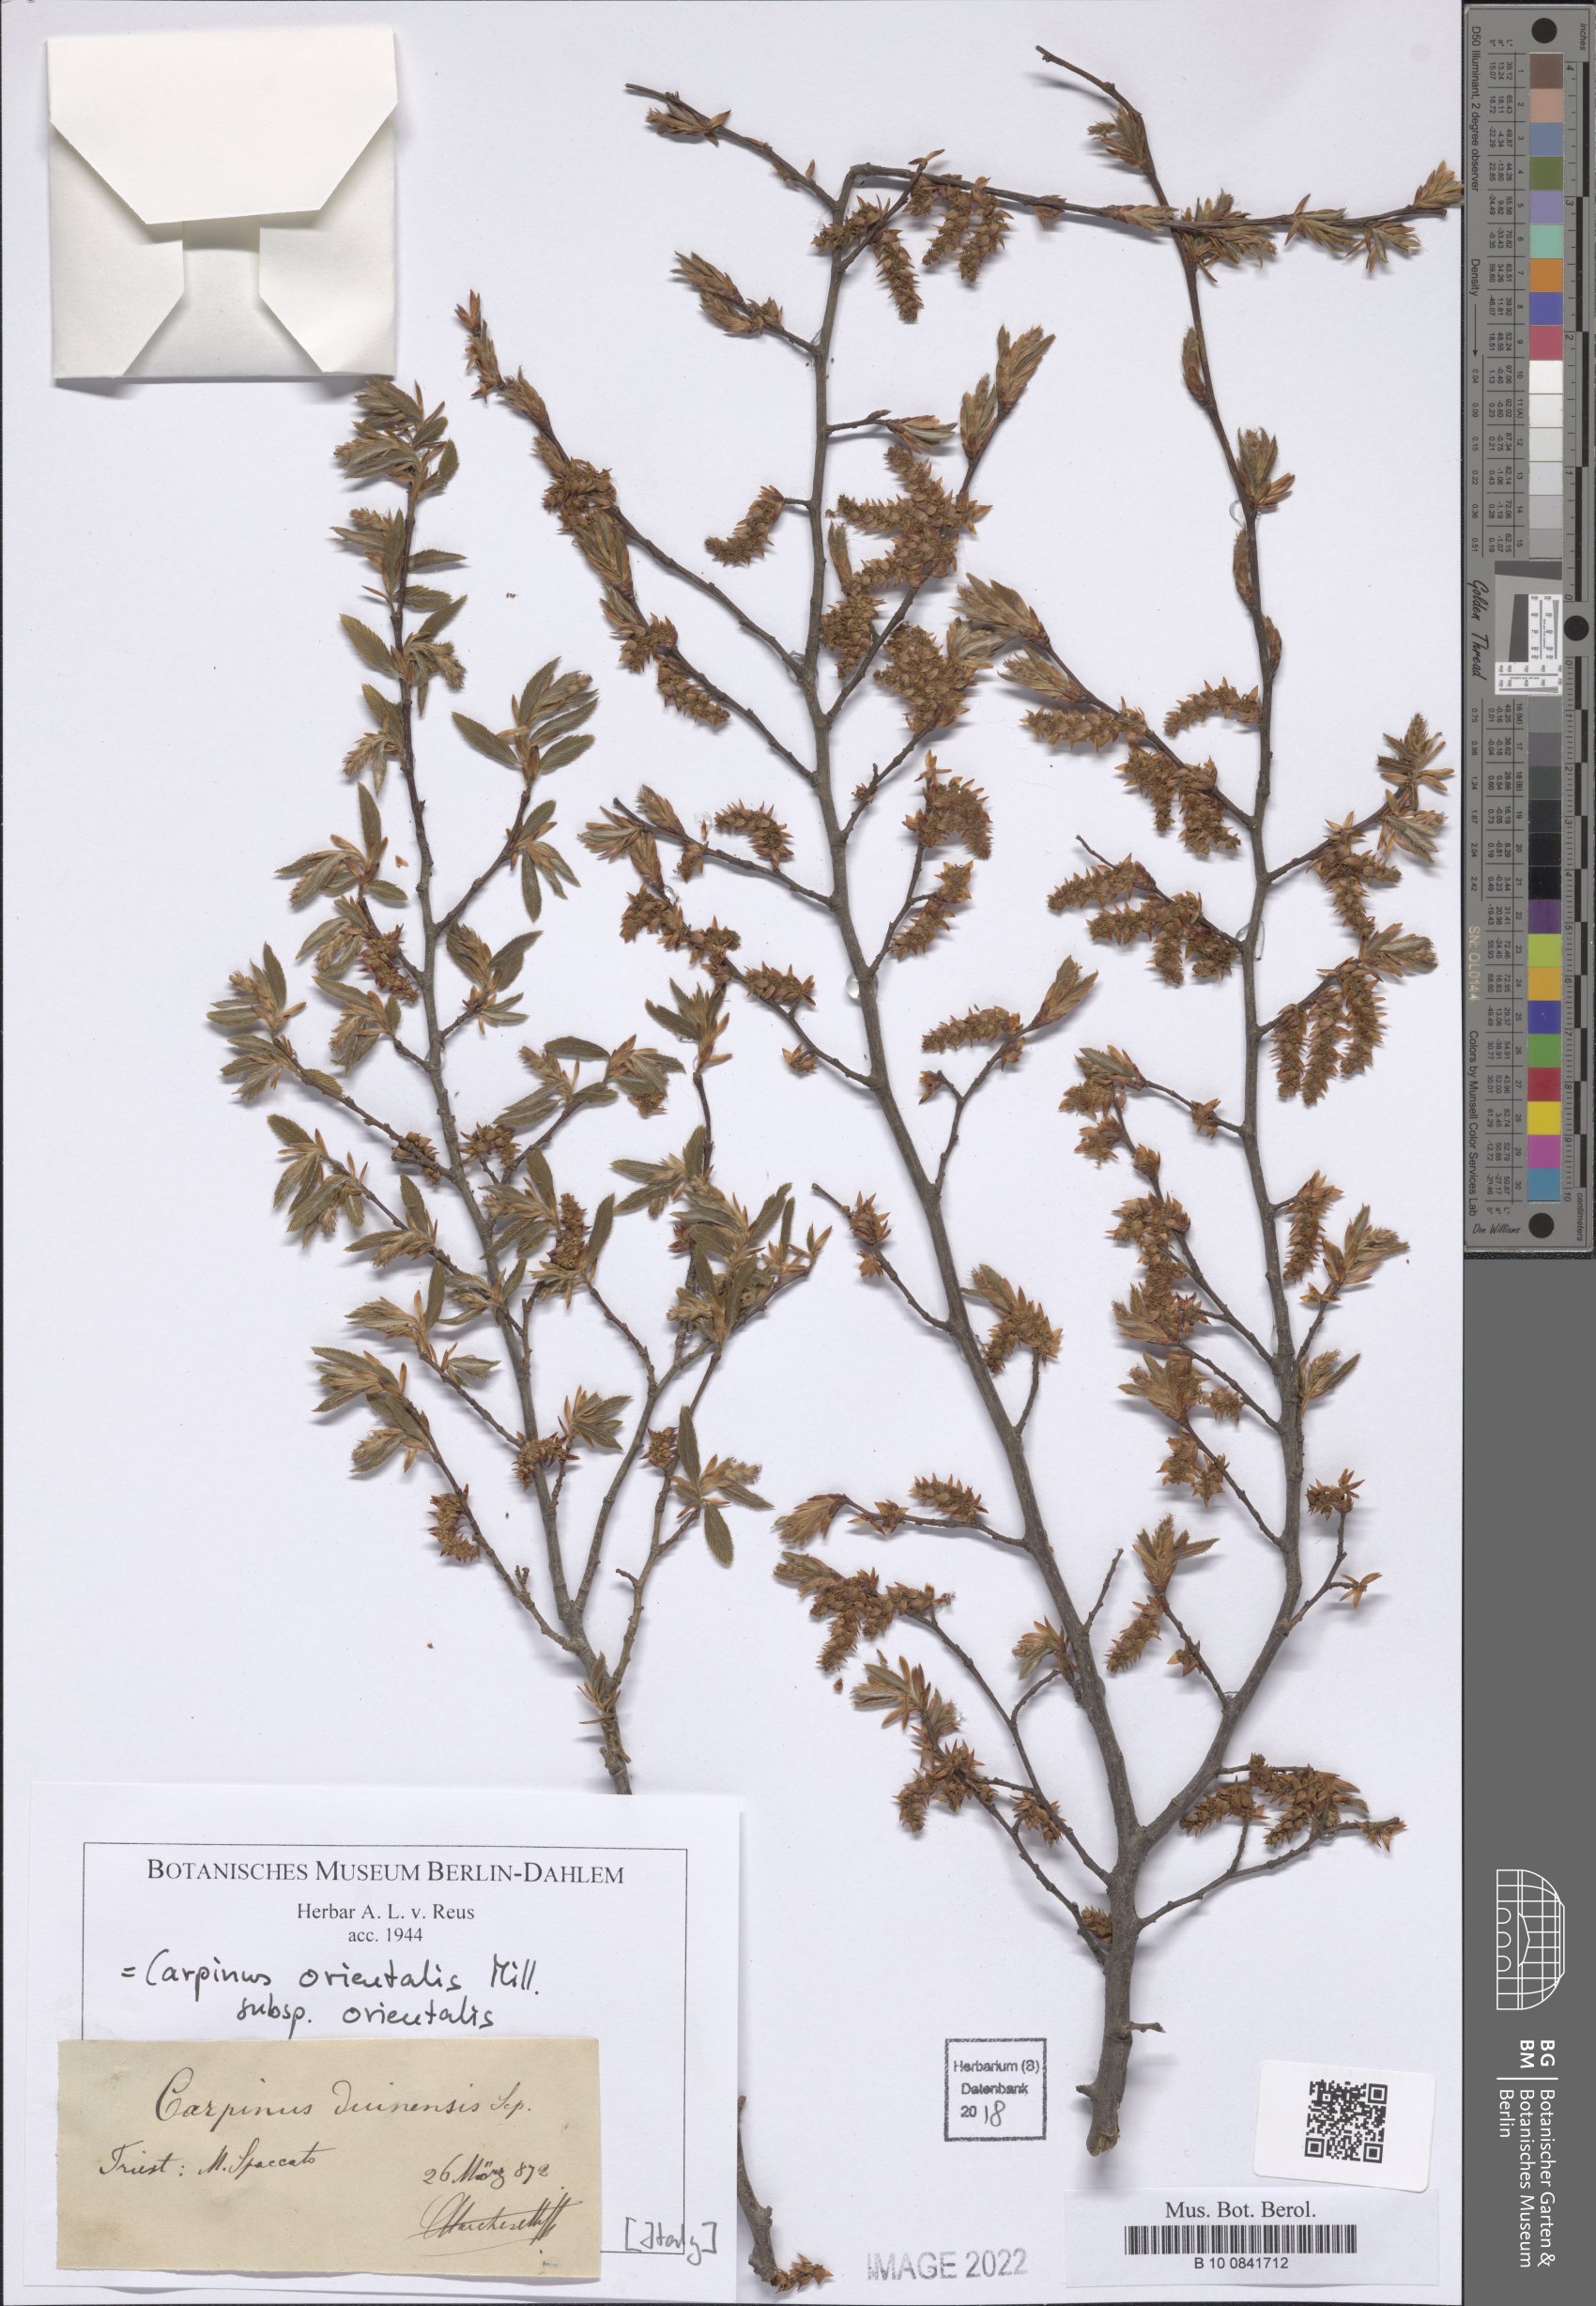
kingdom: Plantae
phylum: Tracheophyta
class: Magnoliopsida
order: Fagales
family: Betulaceae
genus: Carpinus
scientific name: Carpinus orientalis
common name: Eastern hornbeam
